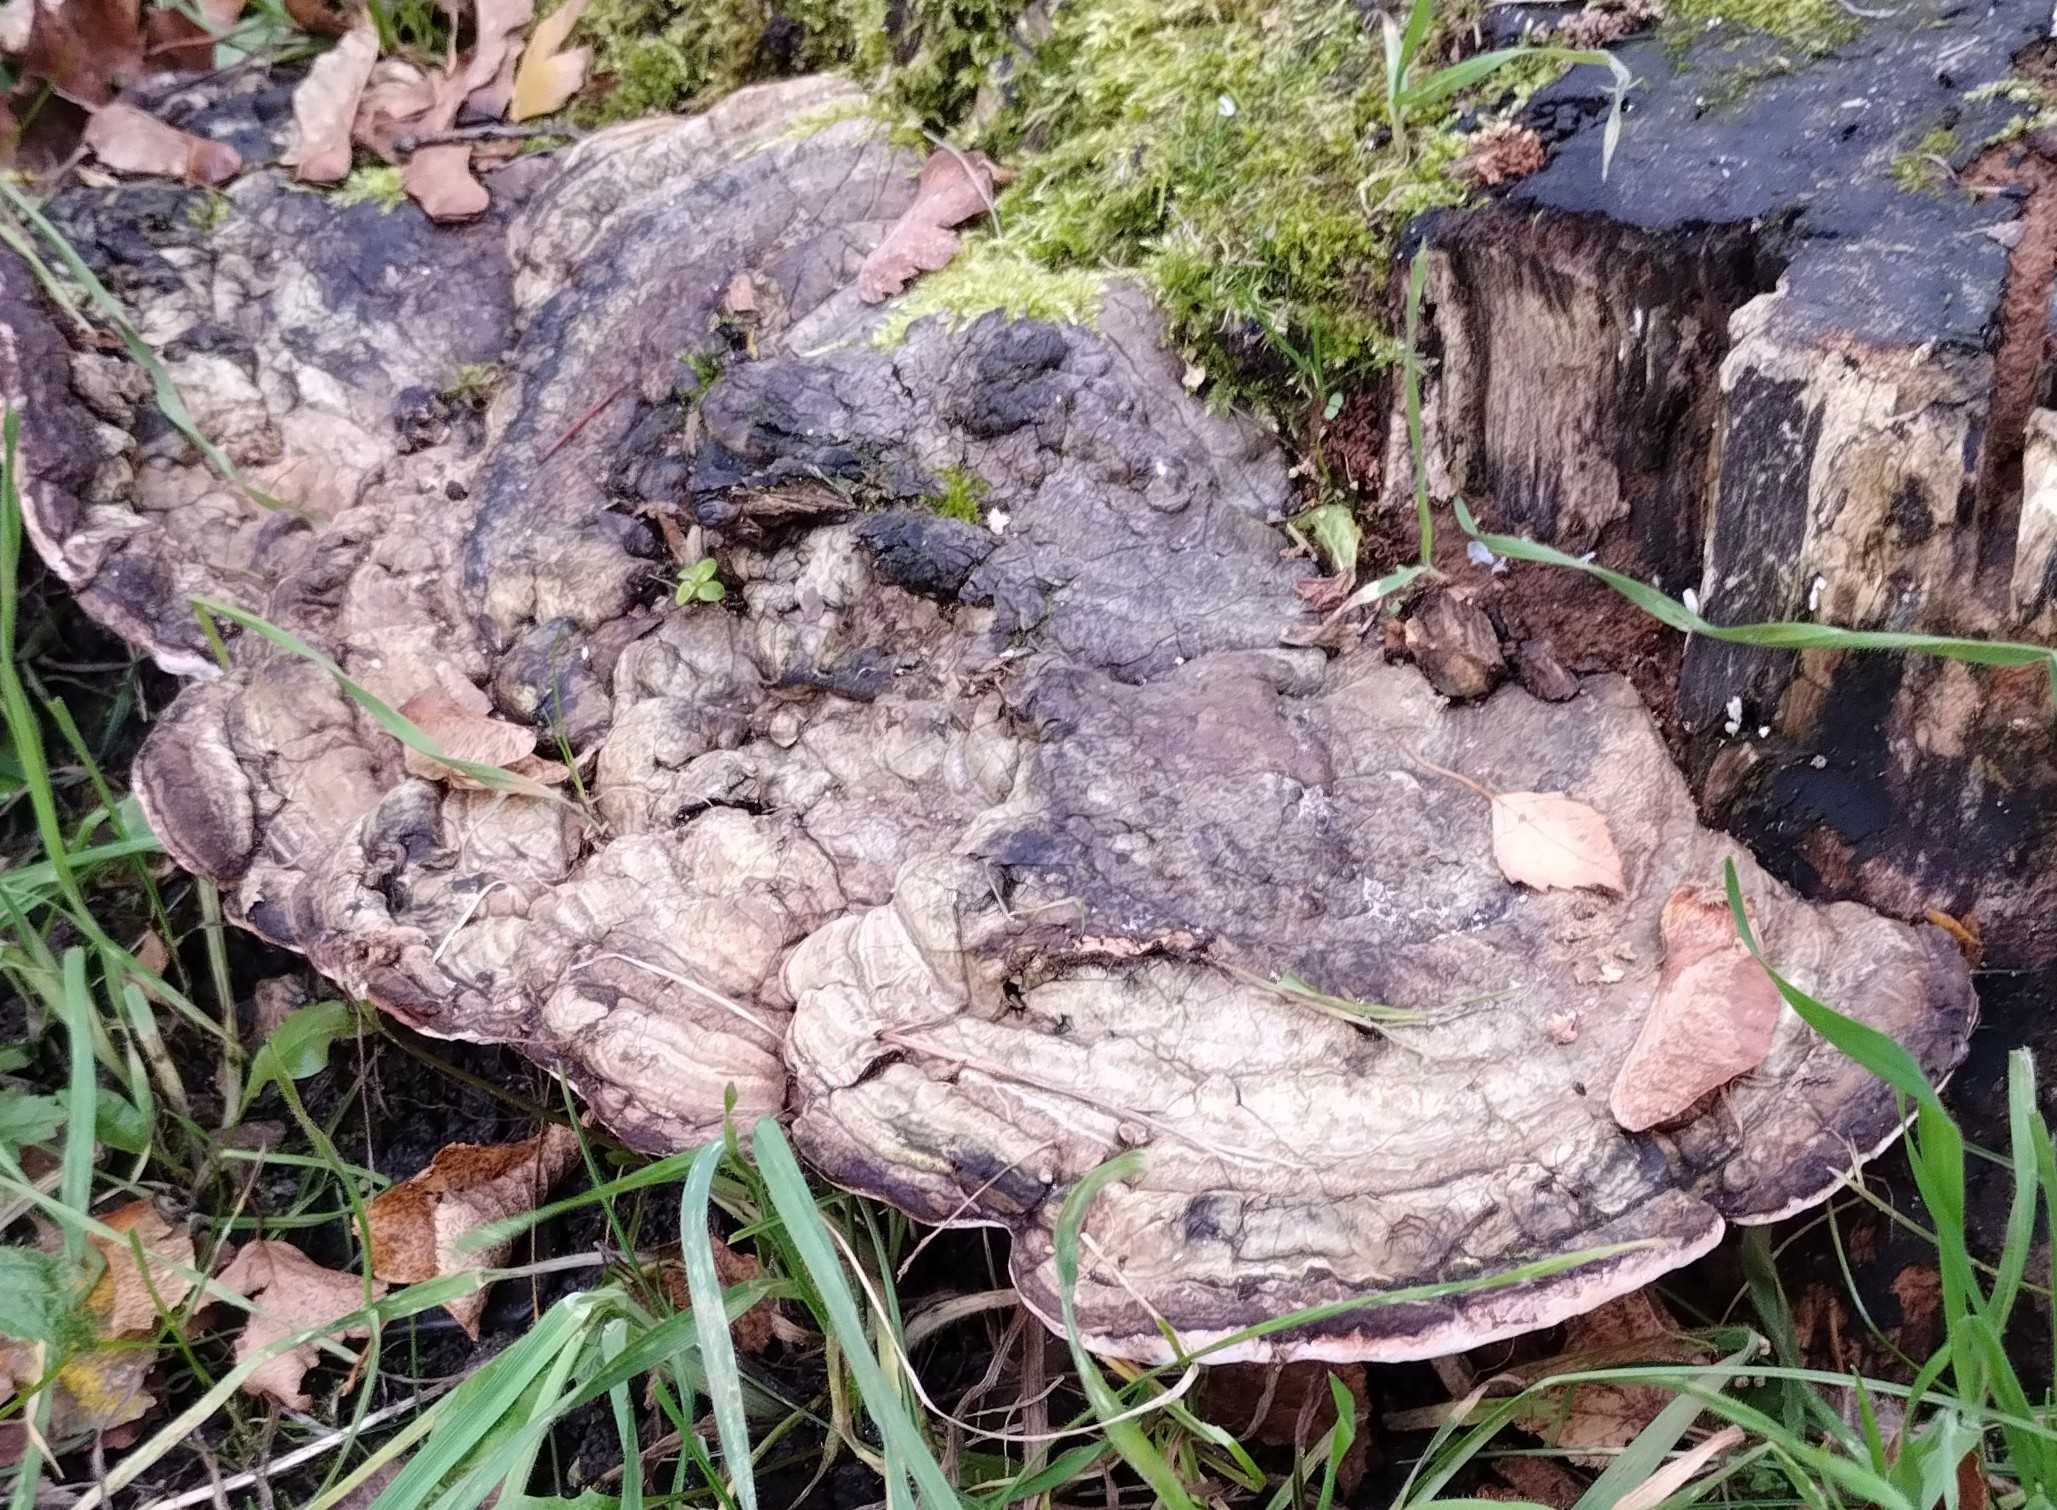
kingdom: Fungi
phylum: Basidiomycota
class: Agaricomycetes
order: Polyporales
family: Polyporaceae
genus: Ganoderma
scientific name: Ganoderma applanatum
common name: flad lakporesvamp
